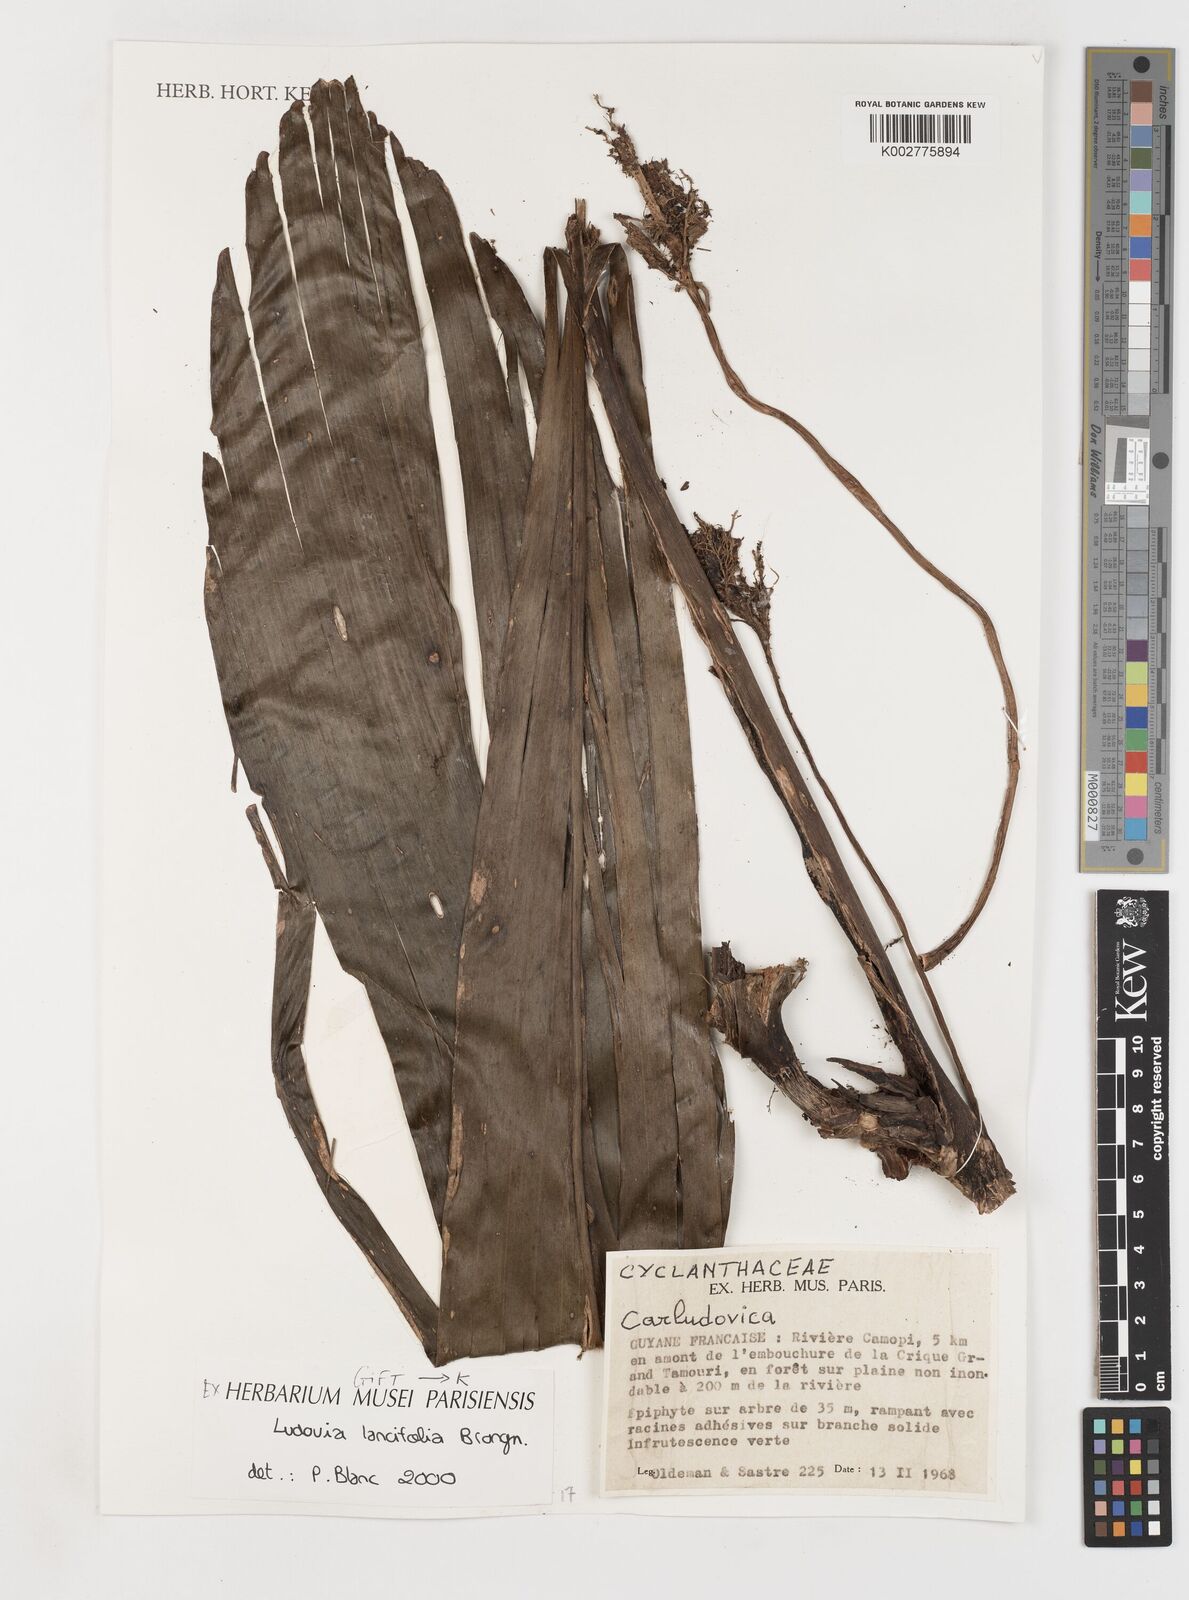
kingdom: Plantae
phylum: Tracheophyta
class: Liliopsida
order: Pandanales
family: Cyclanthaceae
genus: Ludovia
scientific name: Ludovia lancifolia
